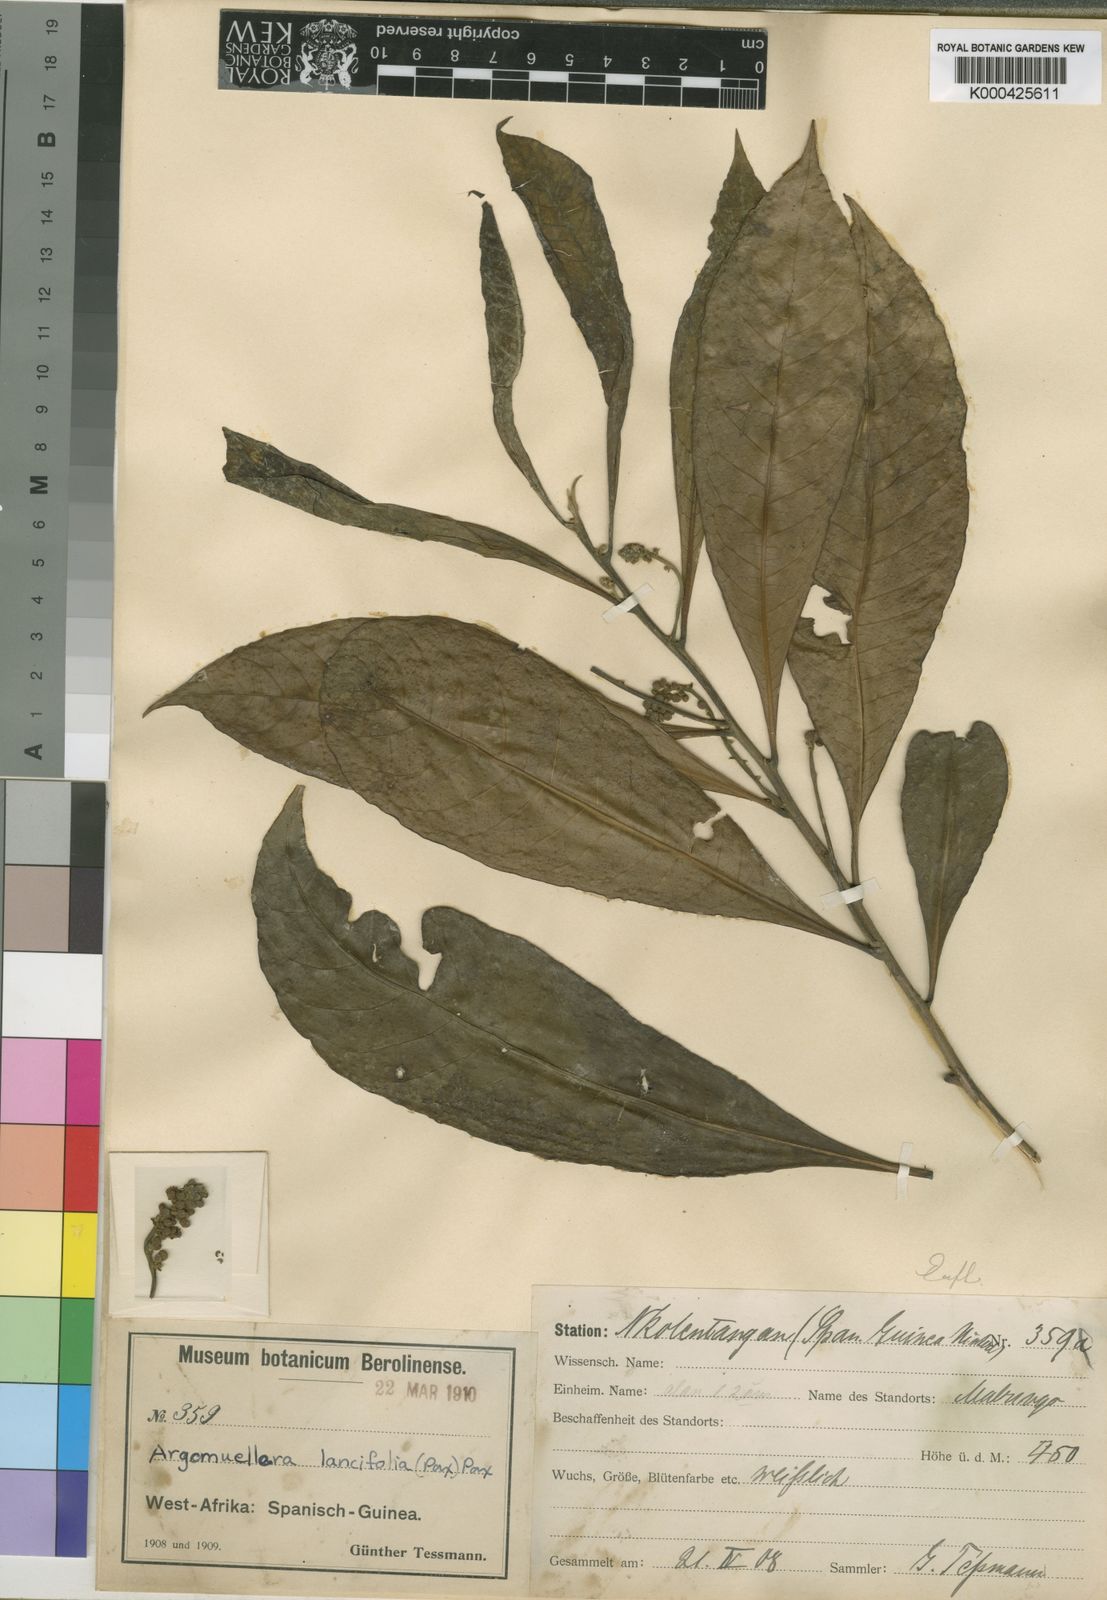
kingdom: Plantae
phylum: Tracheophyta
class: Magnoliopsida
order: Malpighiales
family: Euphorbiaceae
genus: Argomuellera
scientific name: Argomuellera lancifolia
